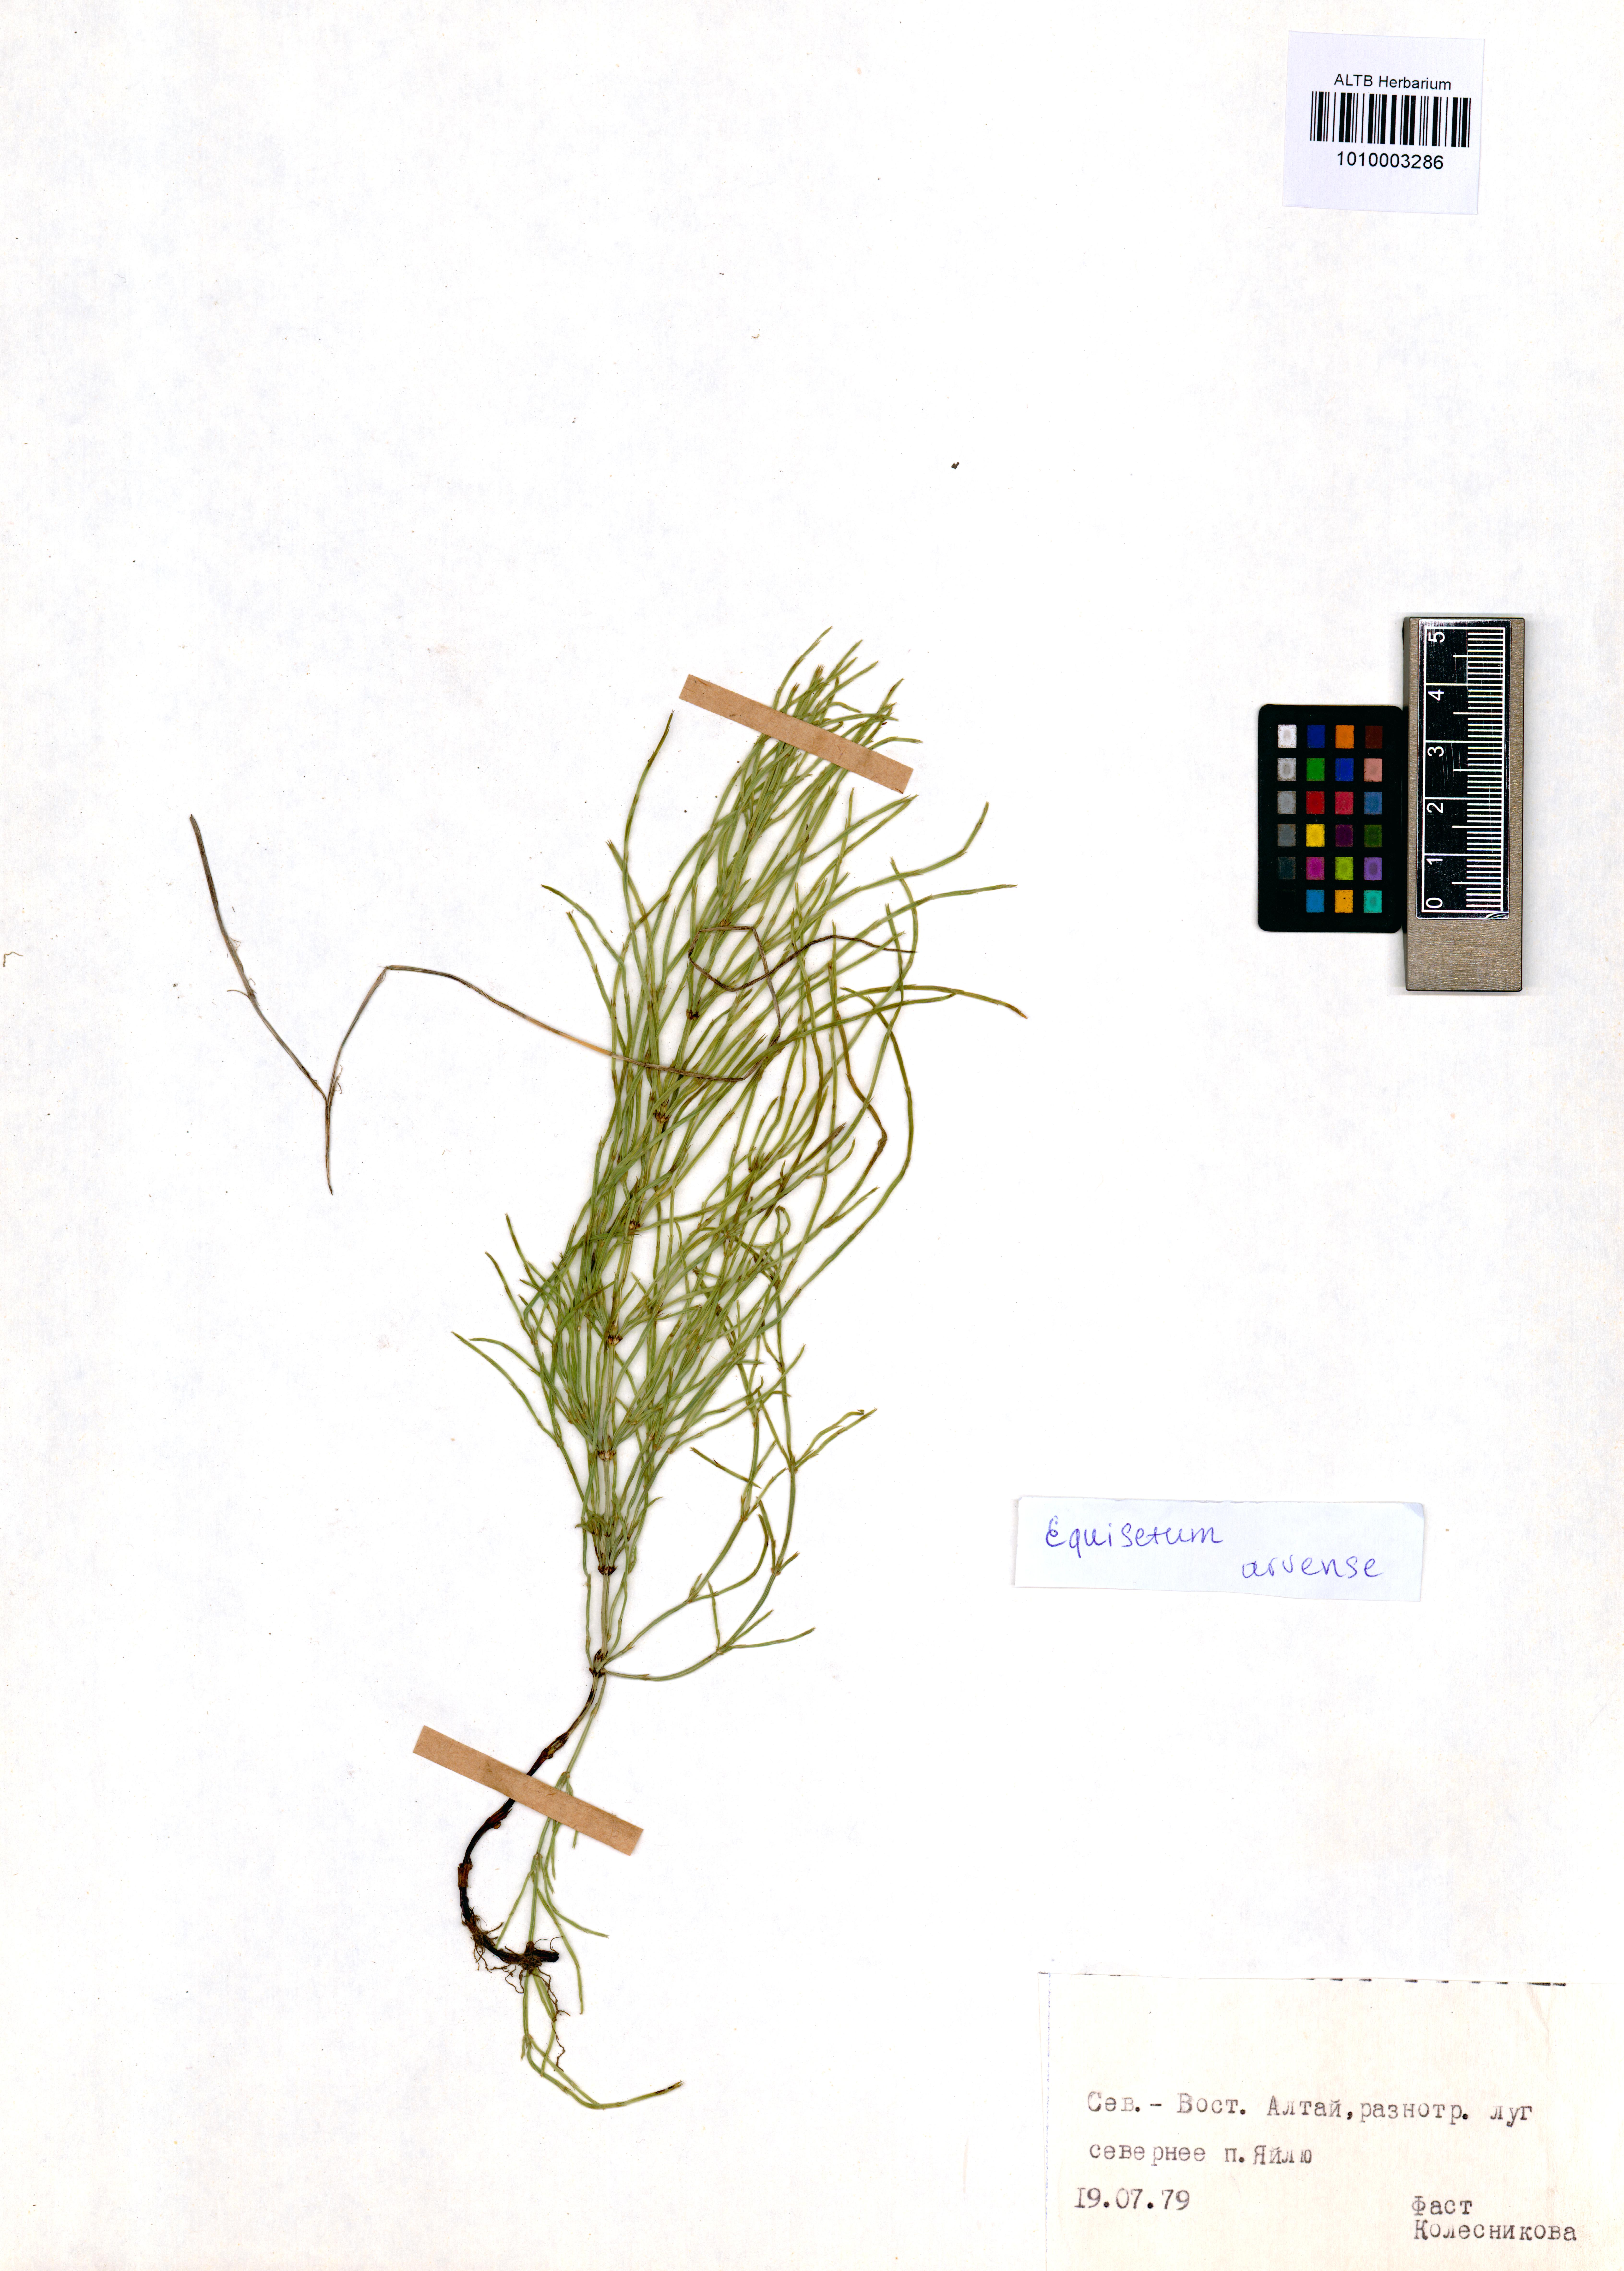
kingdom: Plantae
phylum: Tracheophyta
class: Polypodiopsida
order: Equisetales
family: Equisetaceae
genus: Equisetum
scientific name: Equisetum arvense
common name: Field horsetail
